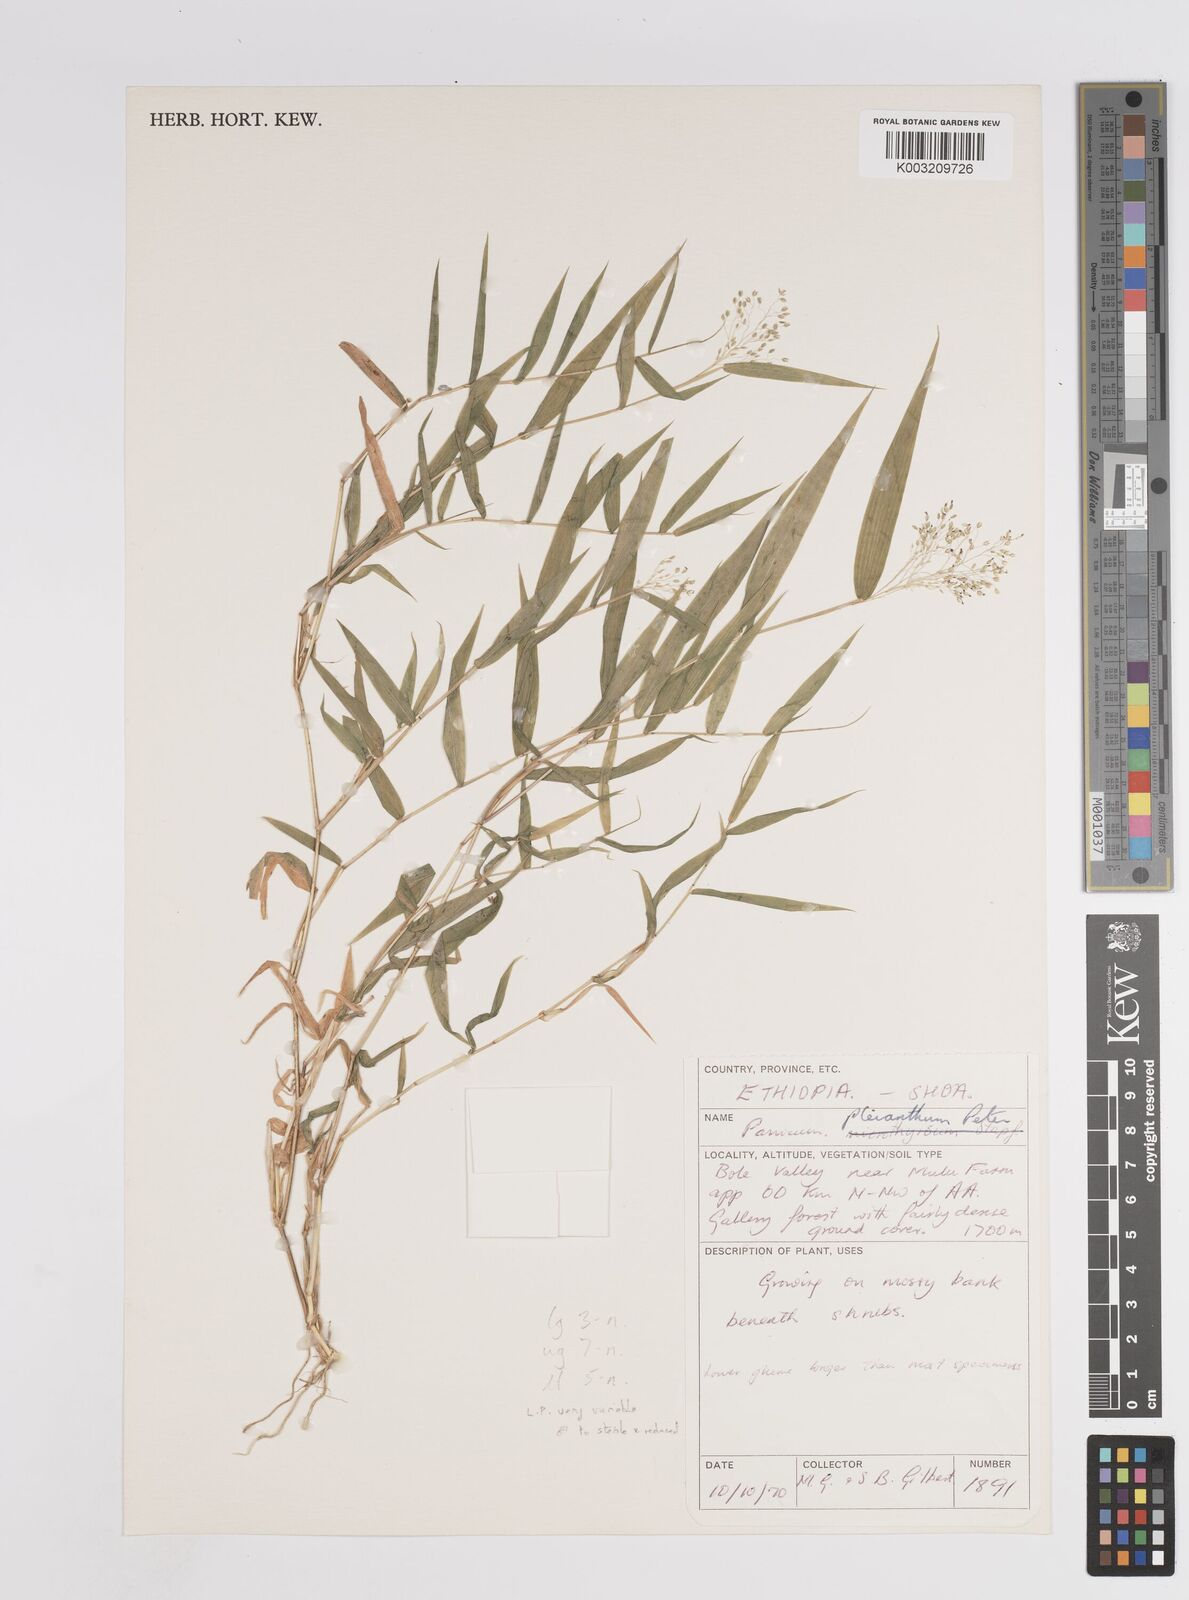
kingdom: Plantae
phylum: Tracheophyta
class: Liliopsida
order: Poales
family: Poaceae
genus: Panicum
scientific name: Panicum pleianthum
